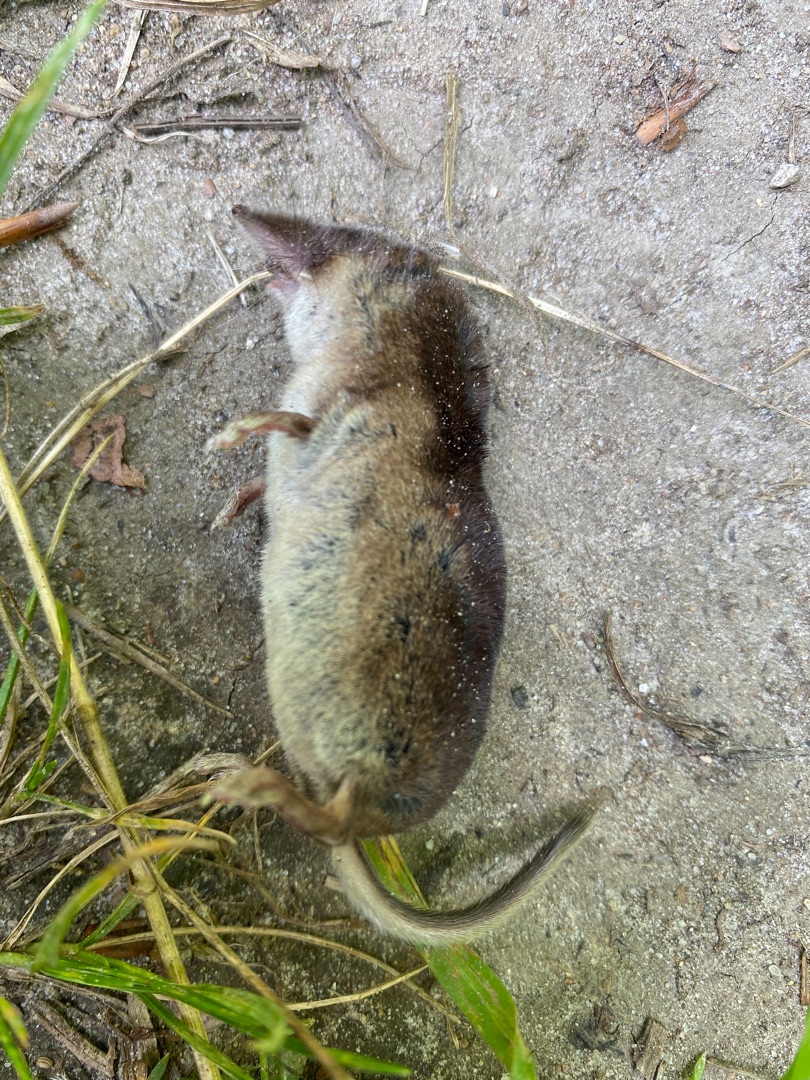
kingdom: Animalia
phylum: Chordata
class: Mammalia
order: Soricomorpha
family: Soricidae
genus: Sorex
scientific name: Sorex araneus
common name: Almindelig spidsmus
